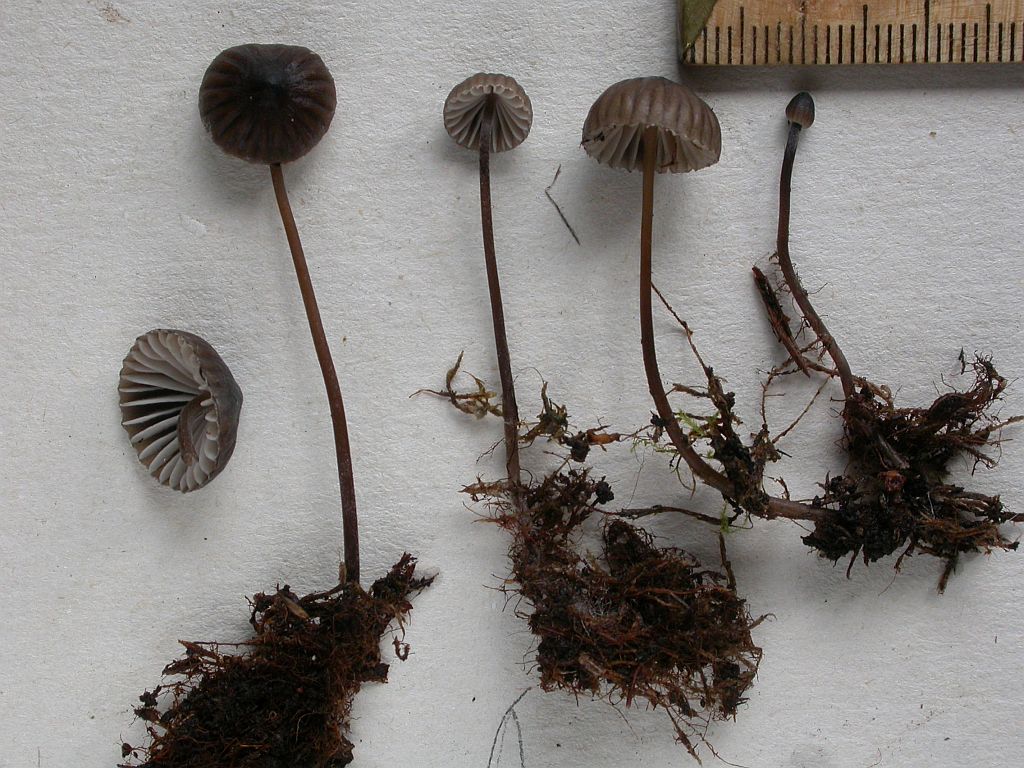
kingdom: Fungi
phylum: Basidiomycota
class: Agaricomycetes
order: Agaricales
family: Mycenaceae
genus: Mycena
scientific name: Mycena galopus
